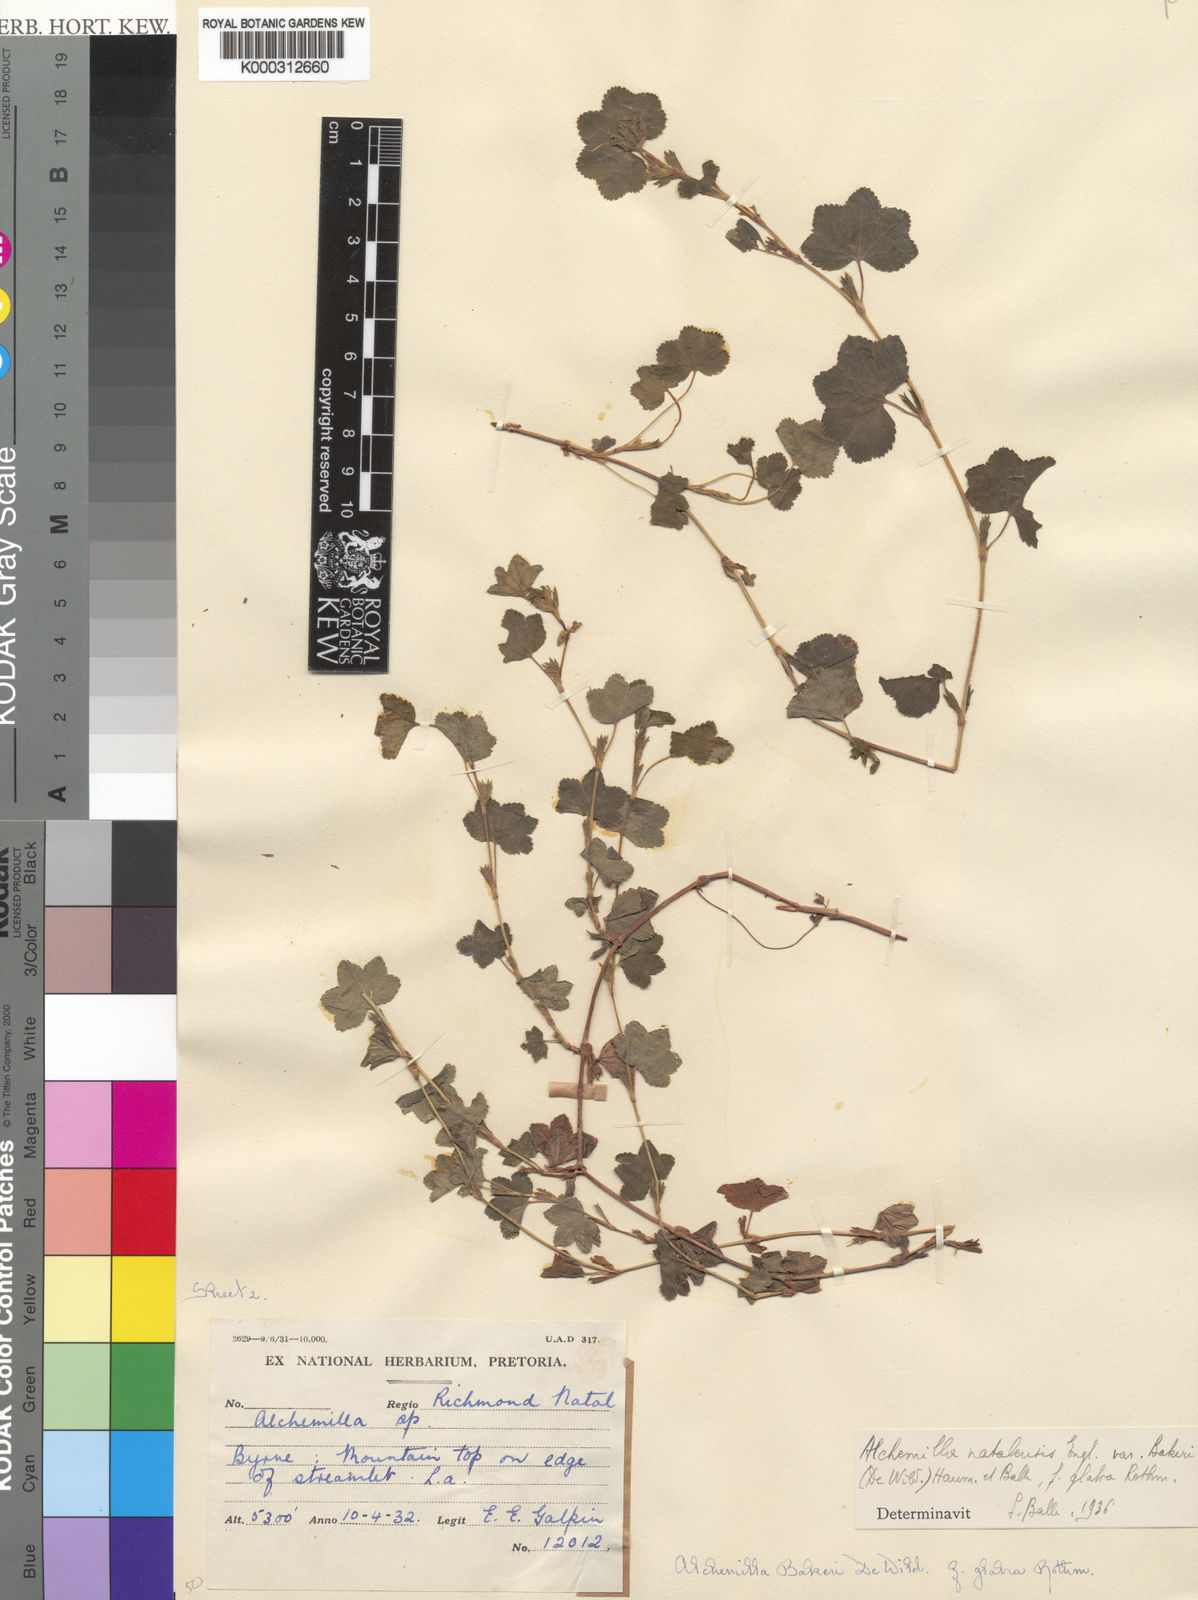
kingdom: Plantae
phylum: Tracheophyta
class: Magnoliopsida
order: Rosales
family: Rosaceae
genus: Alchemilla
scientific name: Alchemilla natalensis
